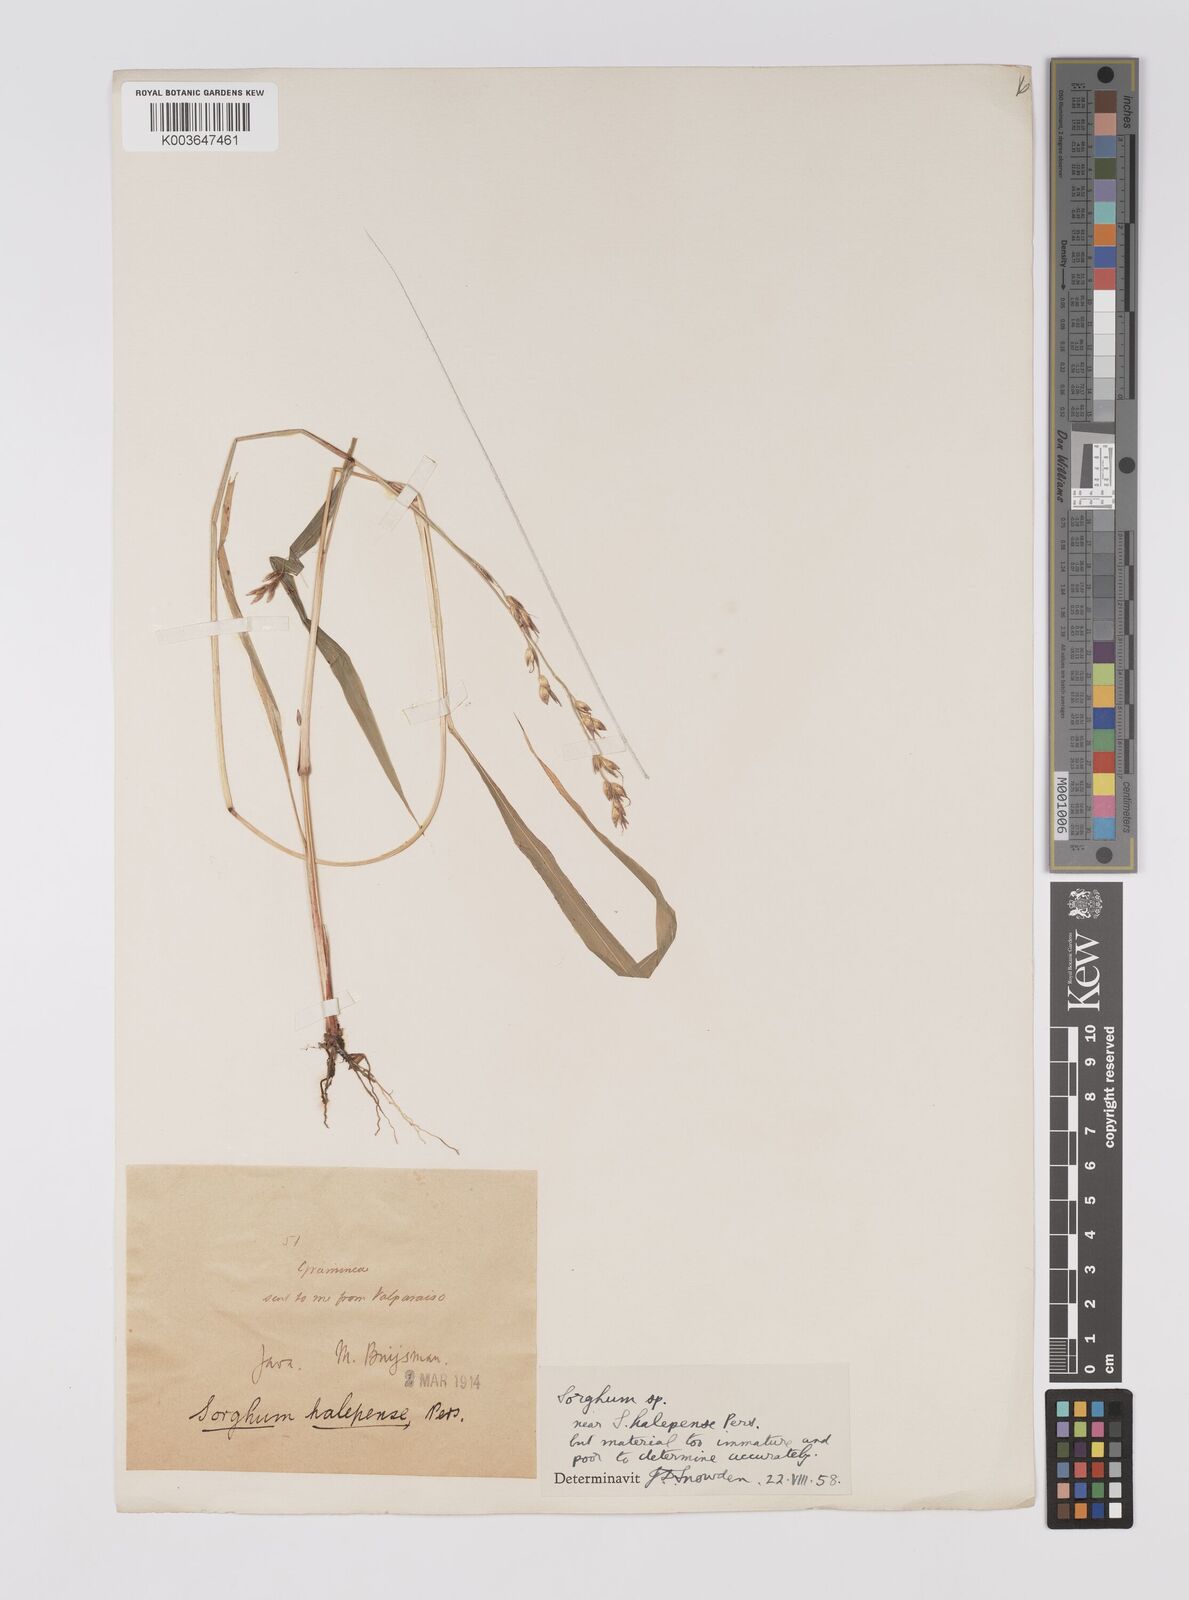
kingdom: Plantae
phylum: Tracheophyta
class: Liliopsida
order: Poales
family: Poaceae
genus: Sorghum
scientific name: Sorghum halepense
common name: Johnson-grass
